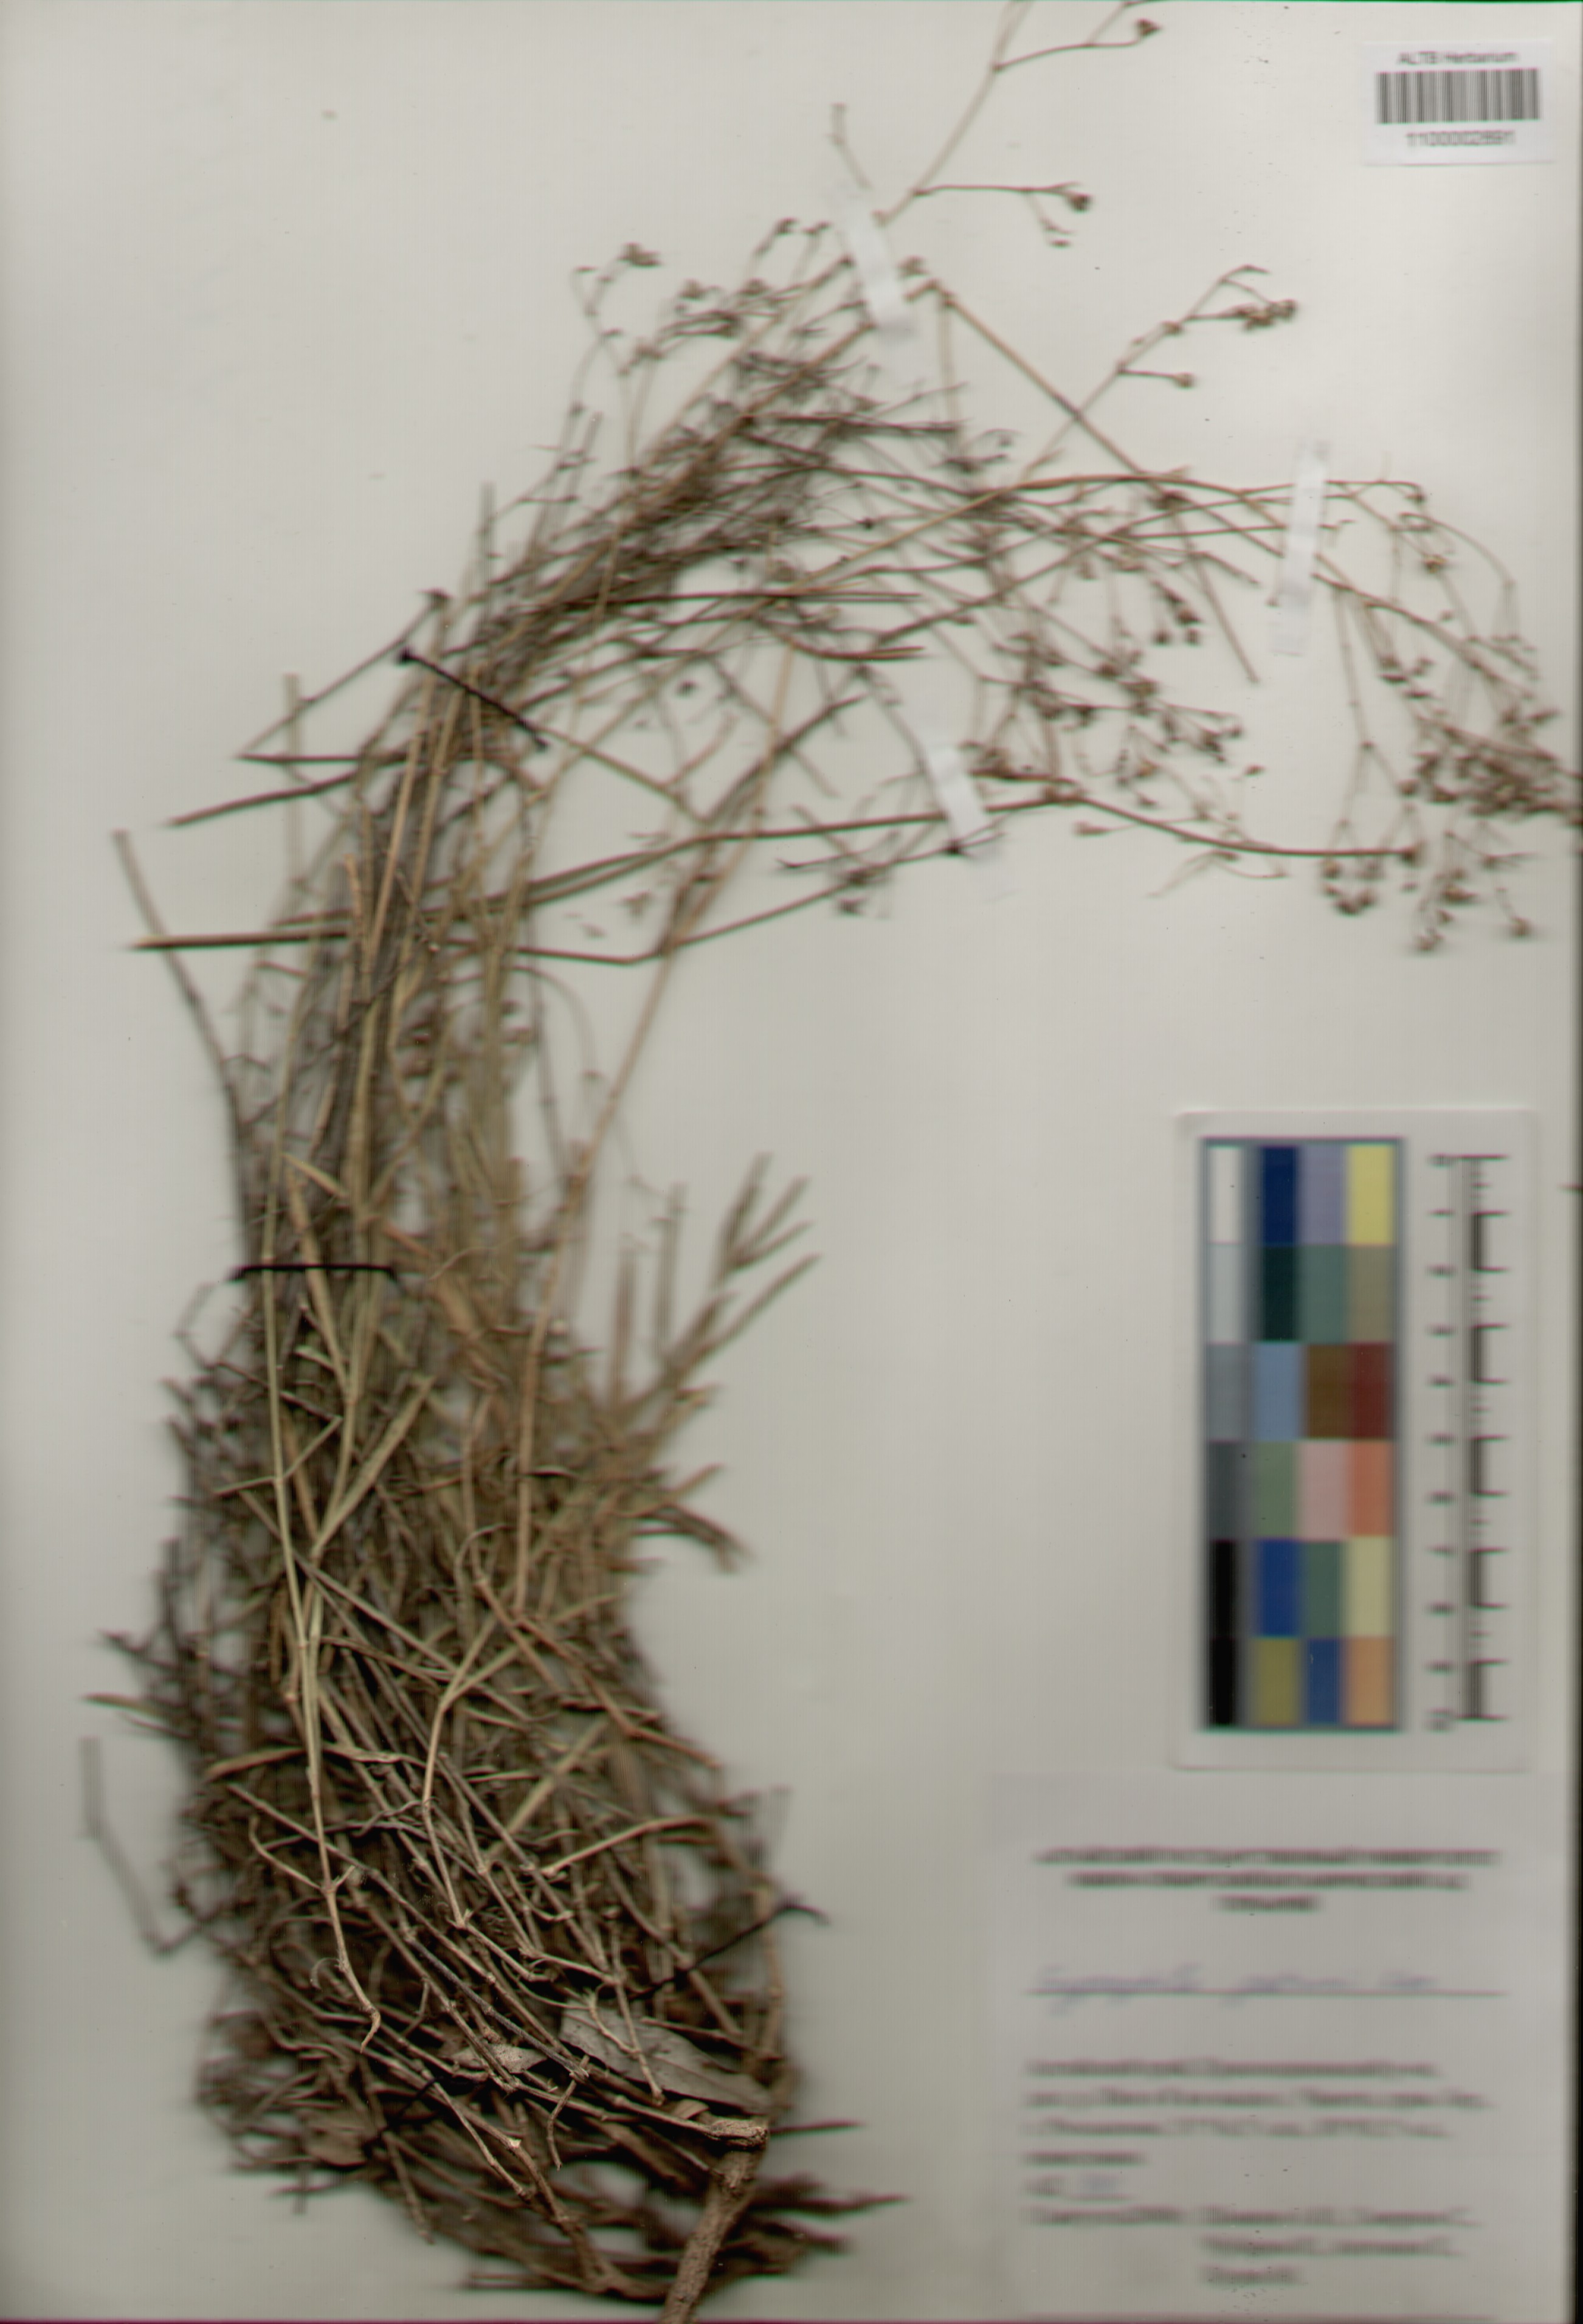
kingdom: Plantae
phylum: Tracheophyta
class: Magnoliopsida
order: Caryophyllales
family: Caryophyllaceae
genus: Gypsophila
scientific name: Gypsophila patrinii
